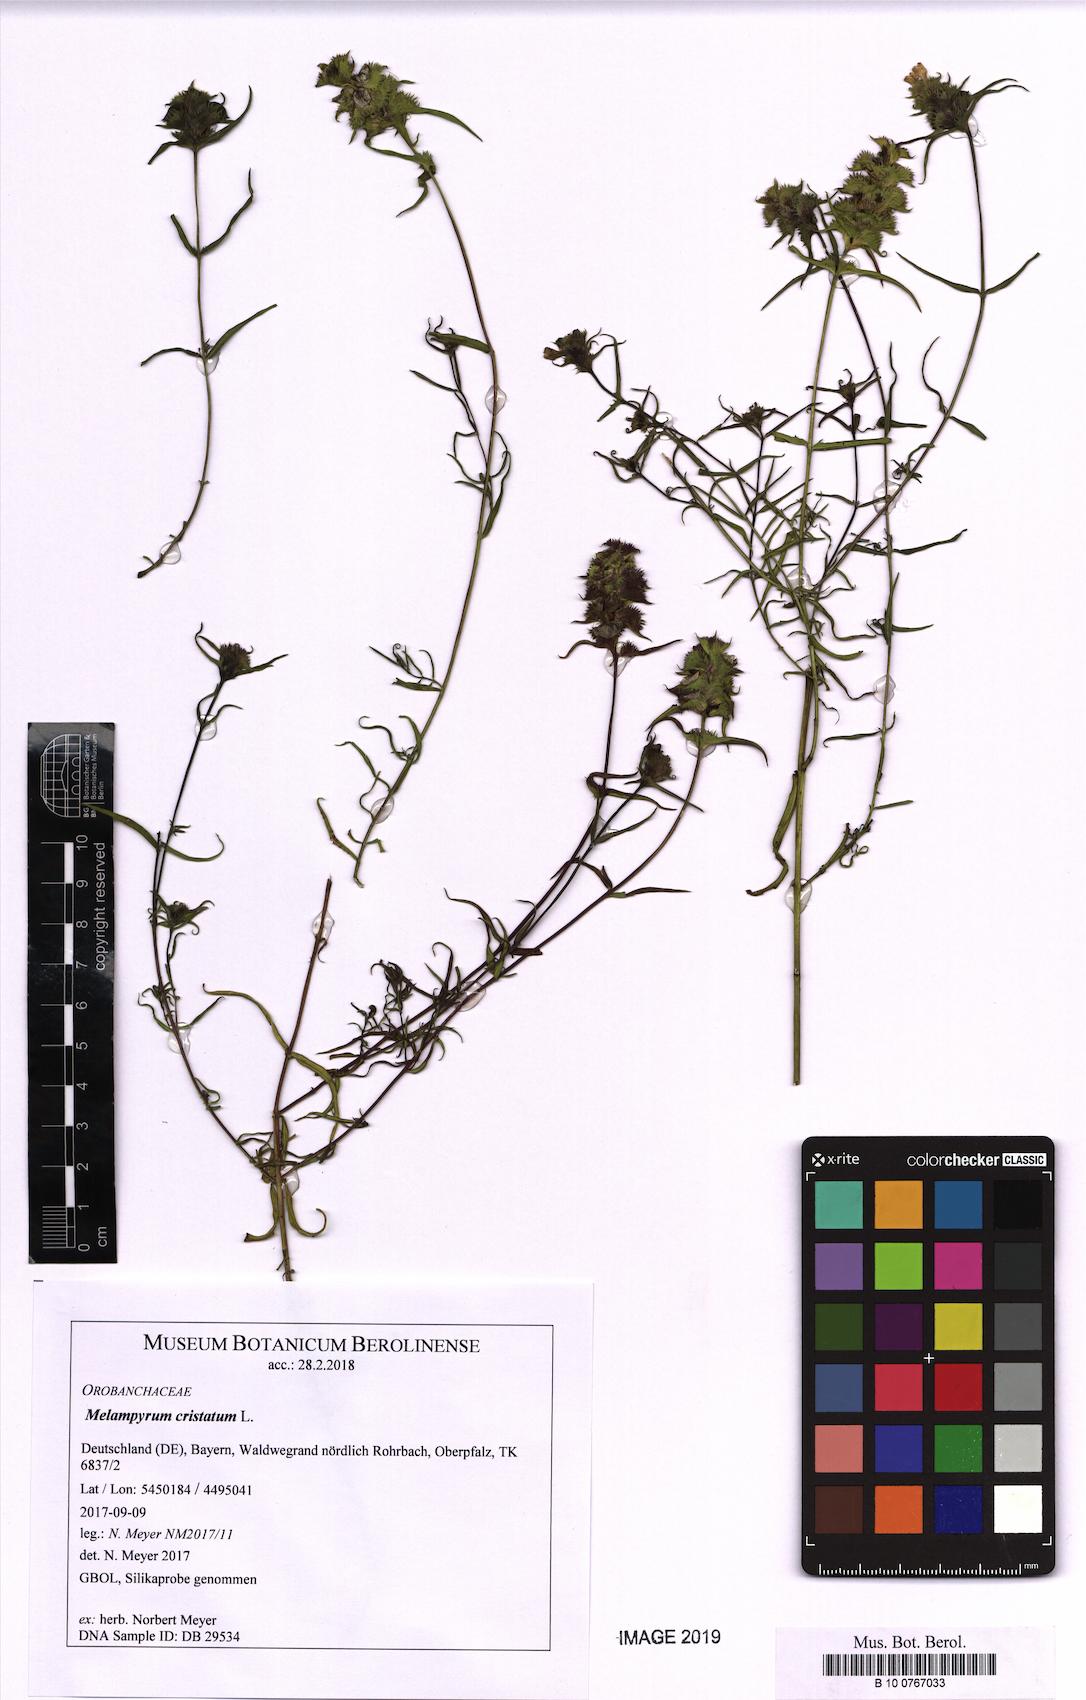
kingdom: Plantae
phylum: Tracheophyta
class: Magnoliopsida
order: Lamiales
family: Orobanchaceae
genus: Melampyrum
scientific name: Melampyrum cristatum
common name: Crested cow-wheat
